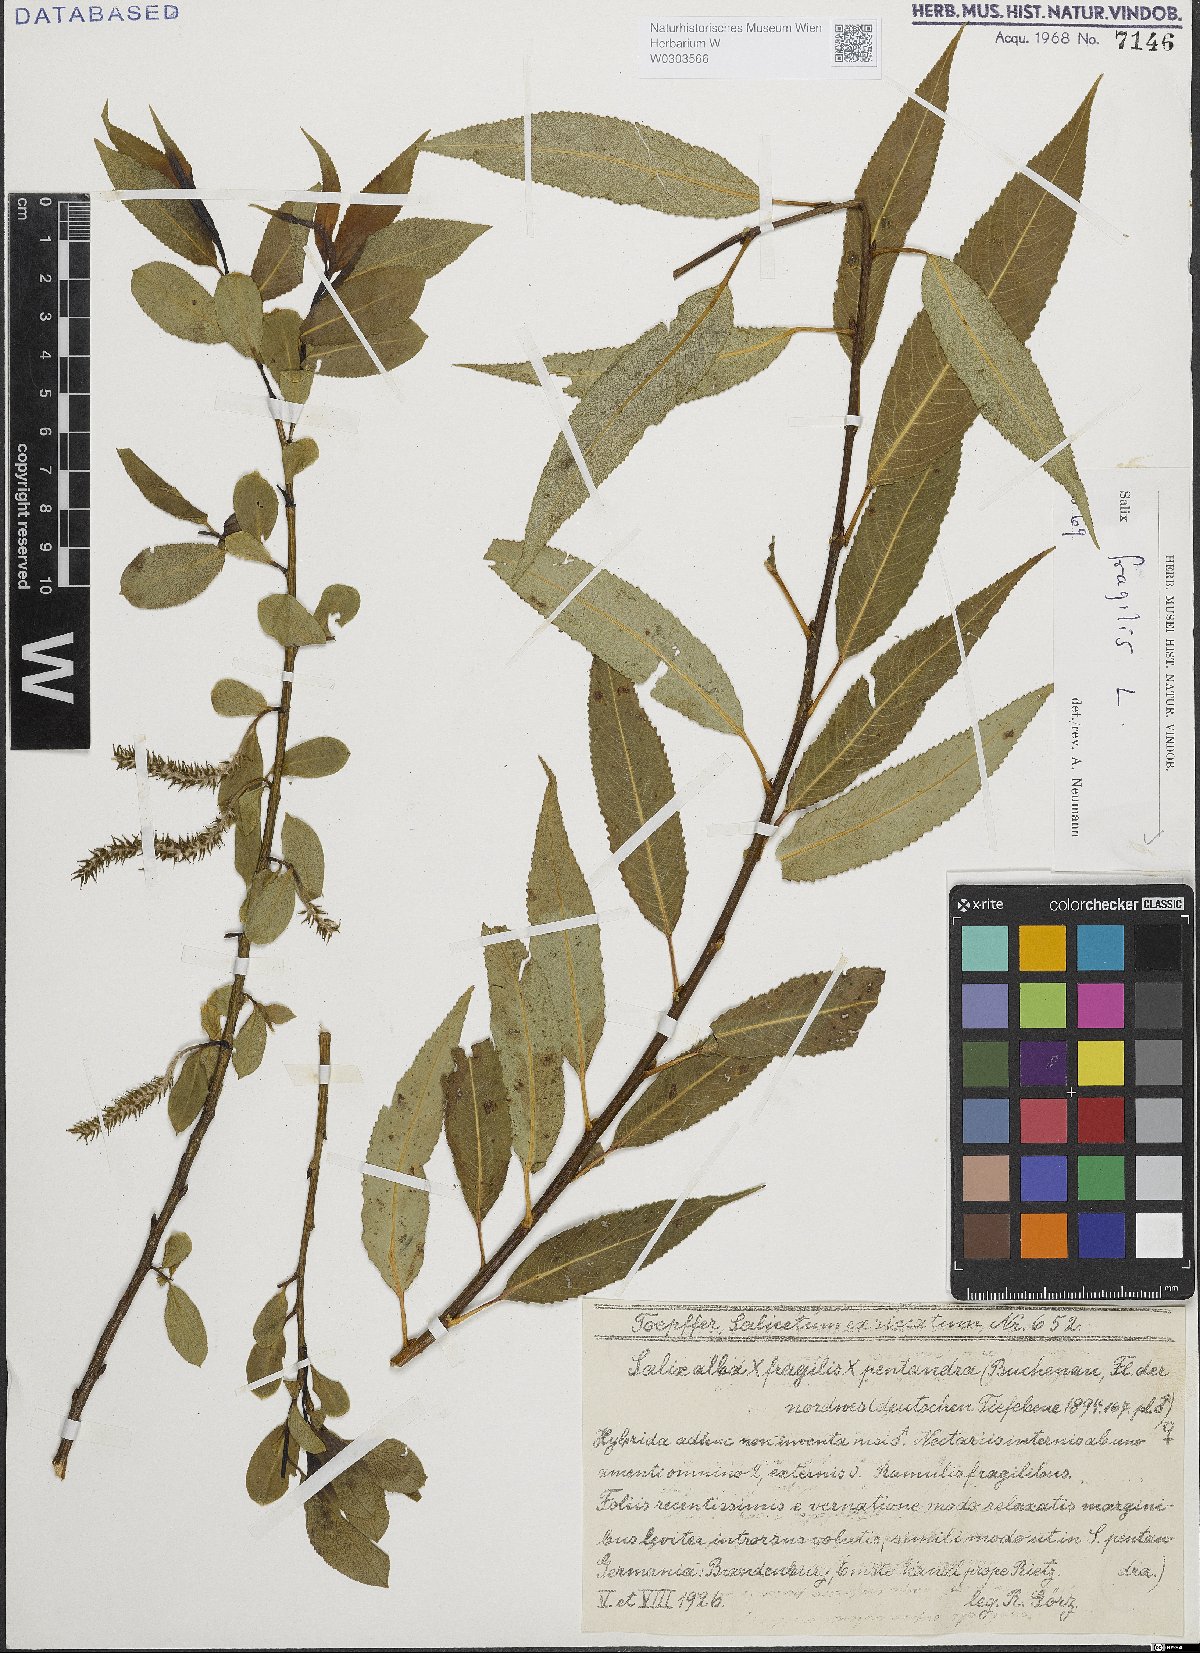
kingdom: Plantae
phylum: Tracheophyta
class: Magnoliopsida
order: Malpighiales
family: Salicaceae
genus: Salix
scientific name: Salix fragilis
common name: Crack willow
